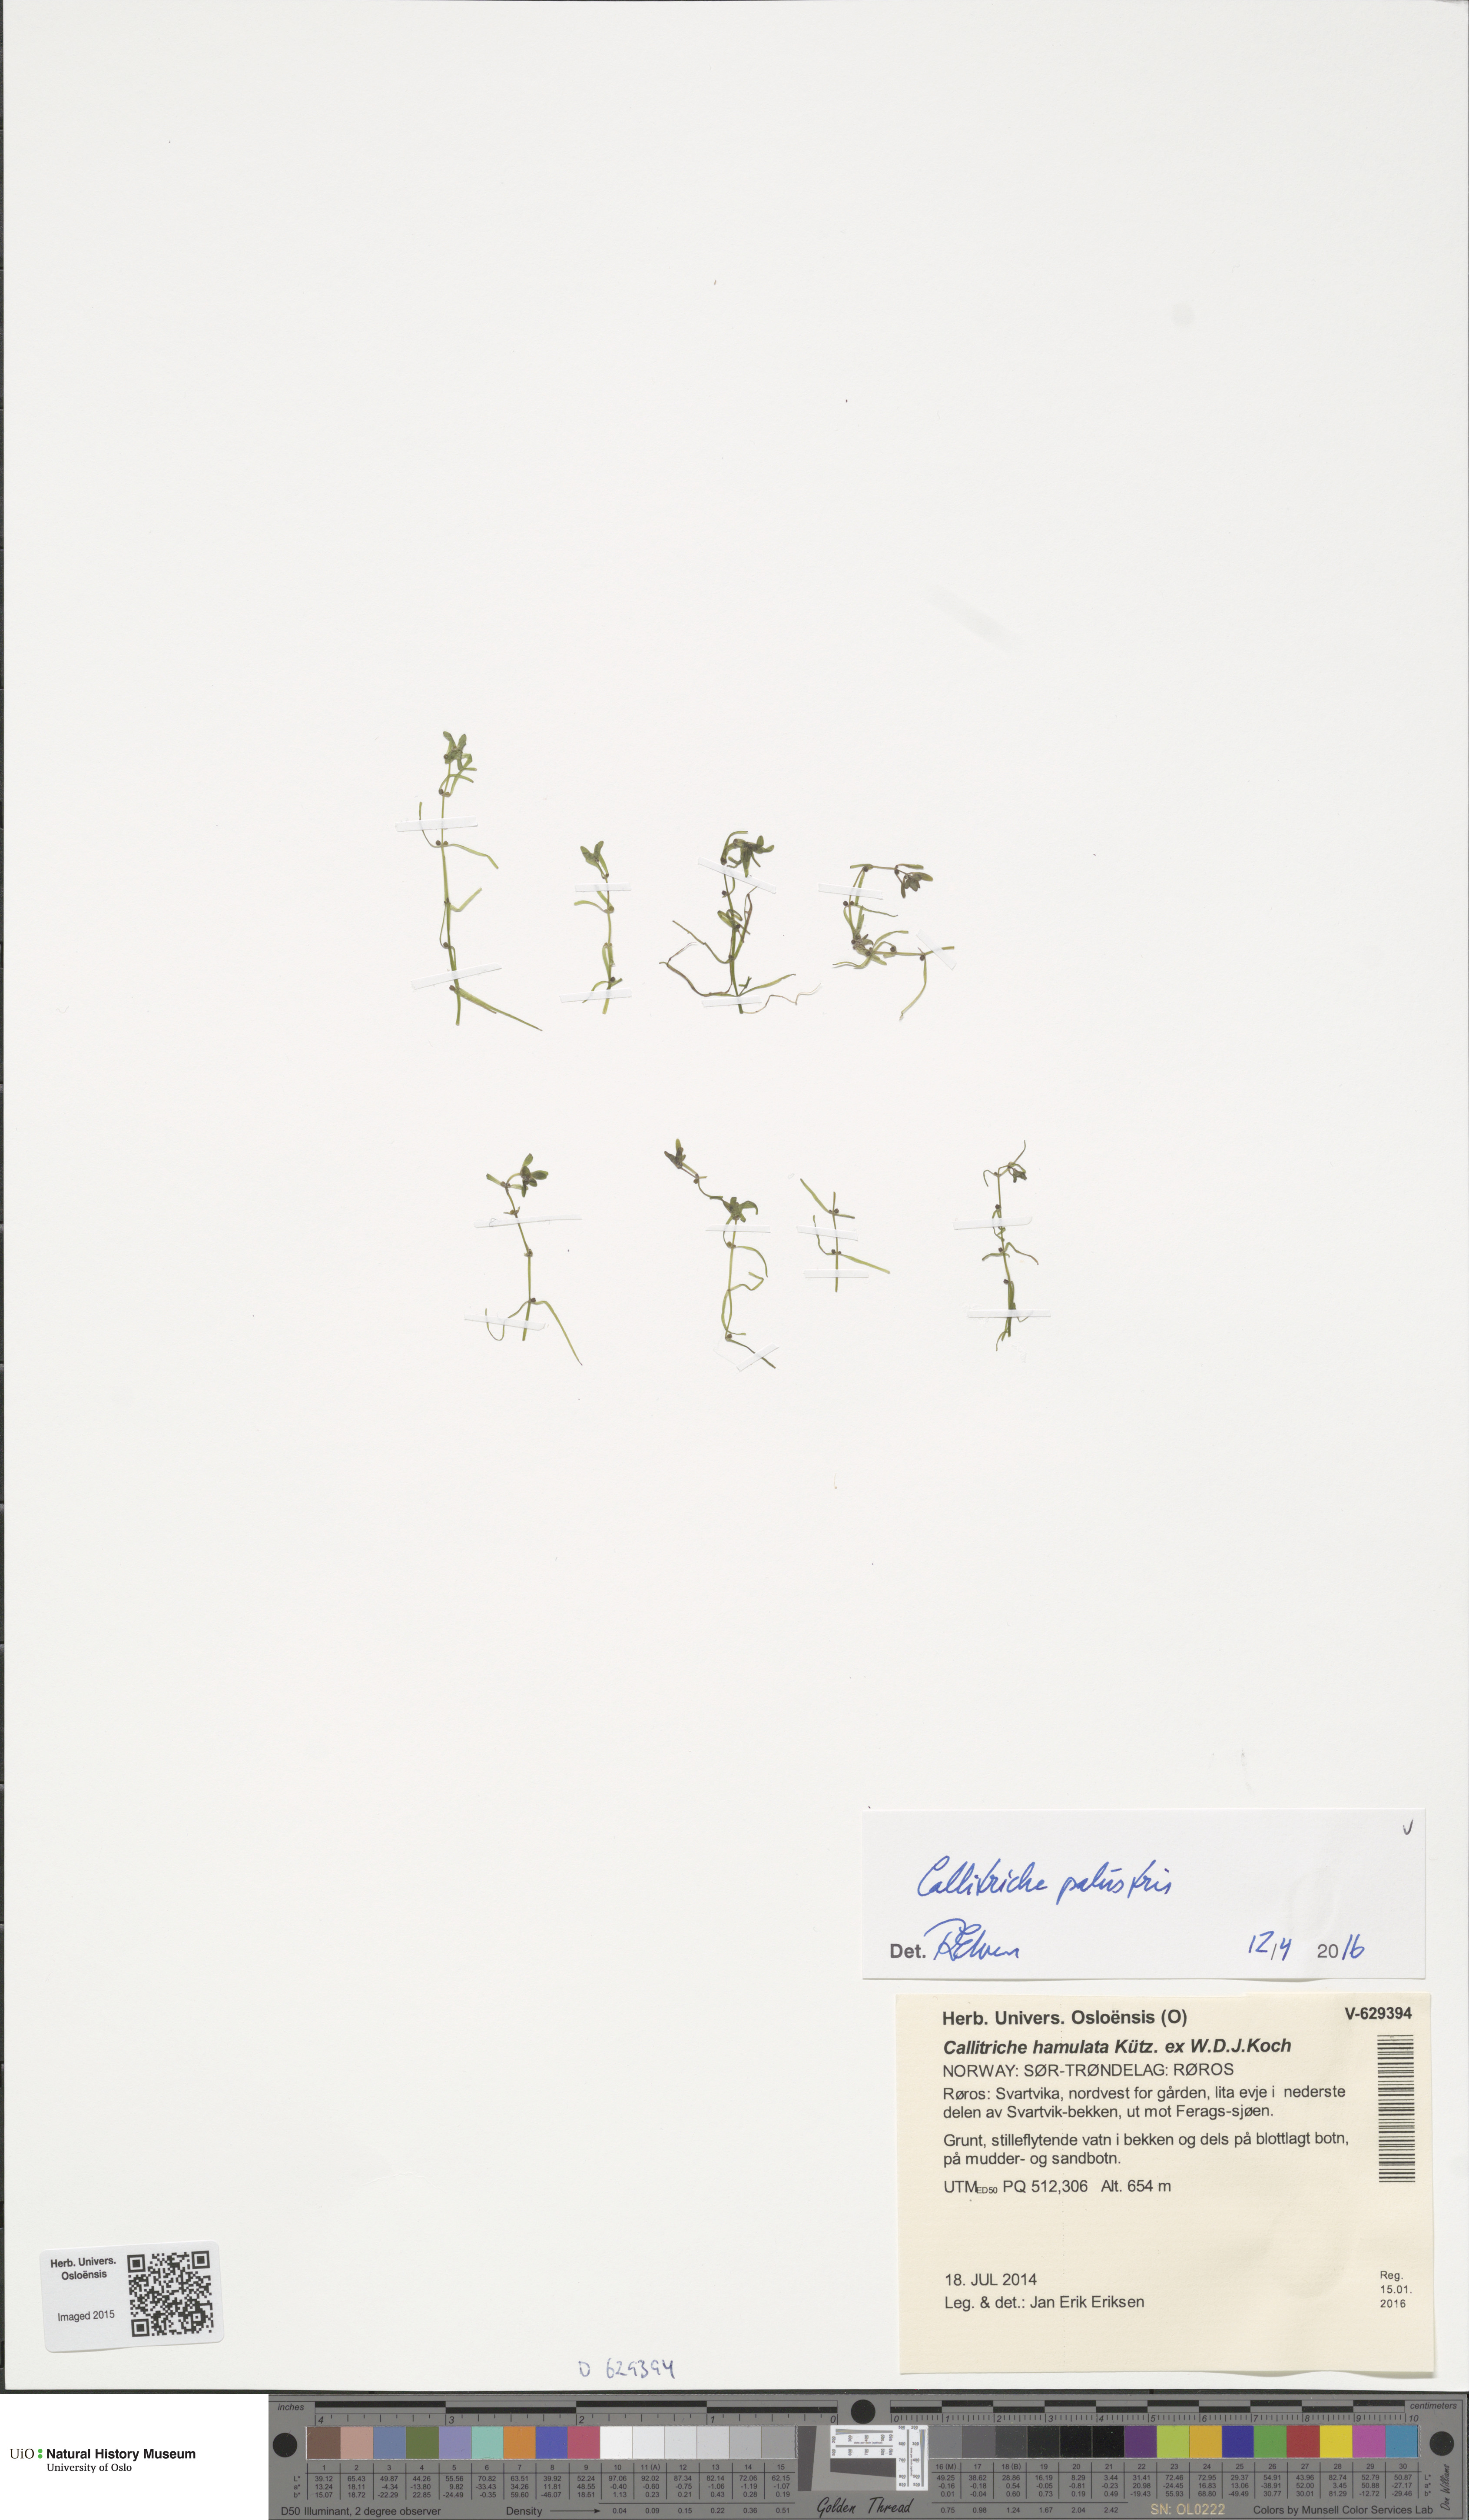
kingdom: Plantae
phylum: Tracheophyta
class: Magnoliopsida
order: Lamiales
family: Plantaginaceae
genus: Callitriche
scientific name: Callitriche palustris
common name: Spring water-starwort
